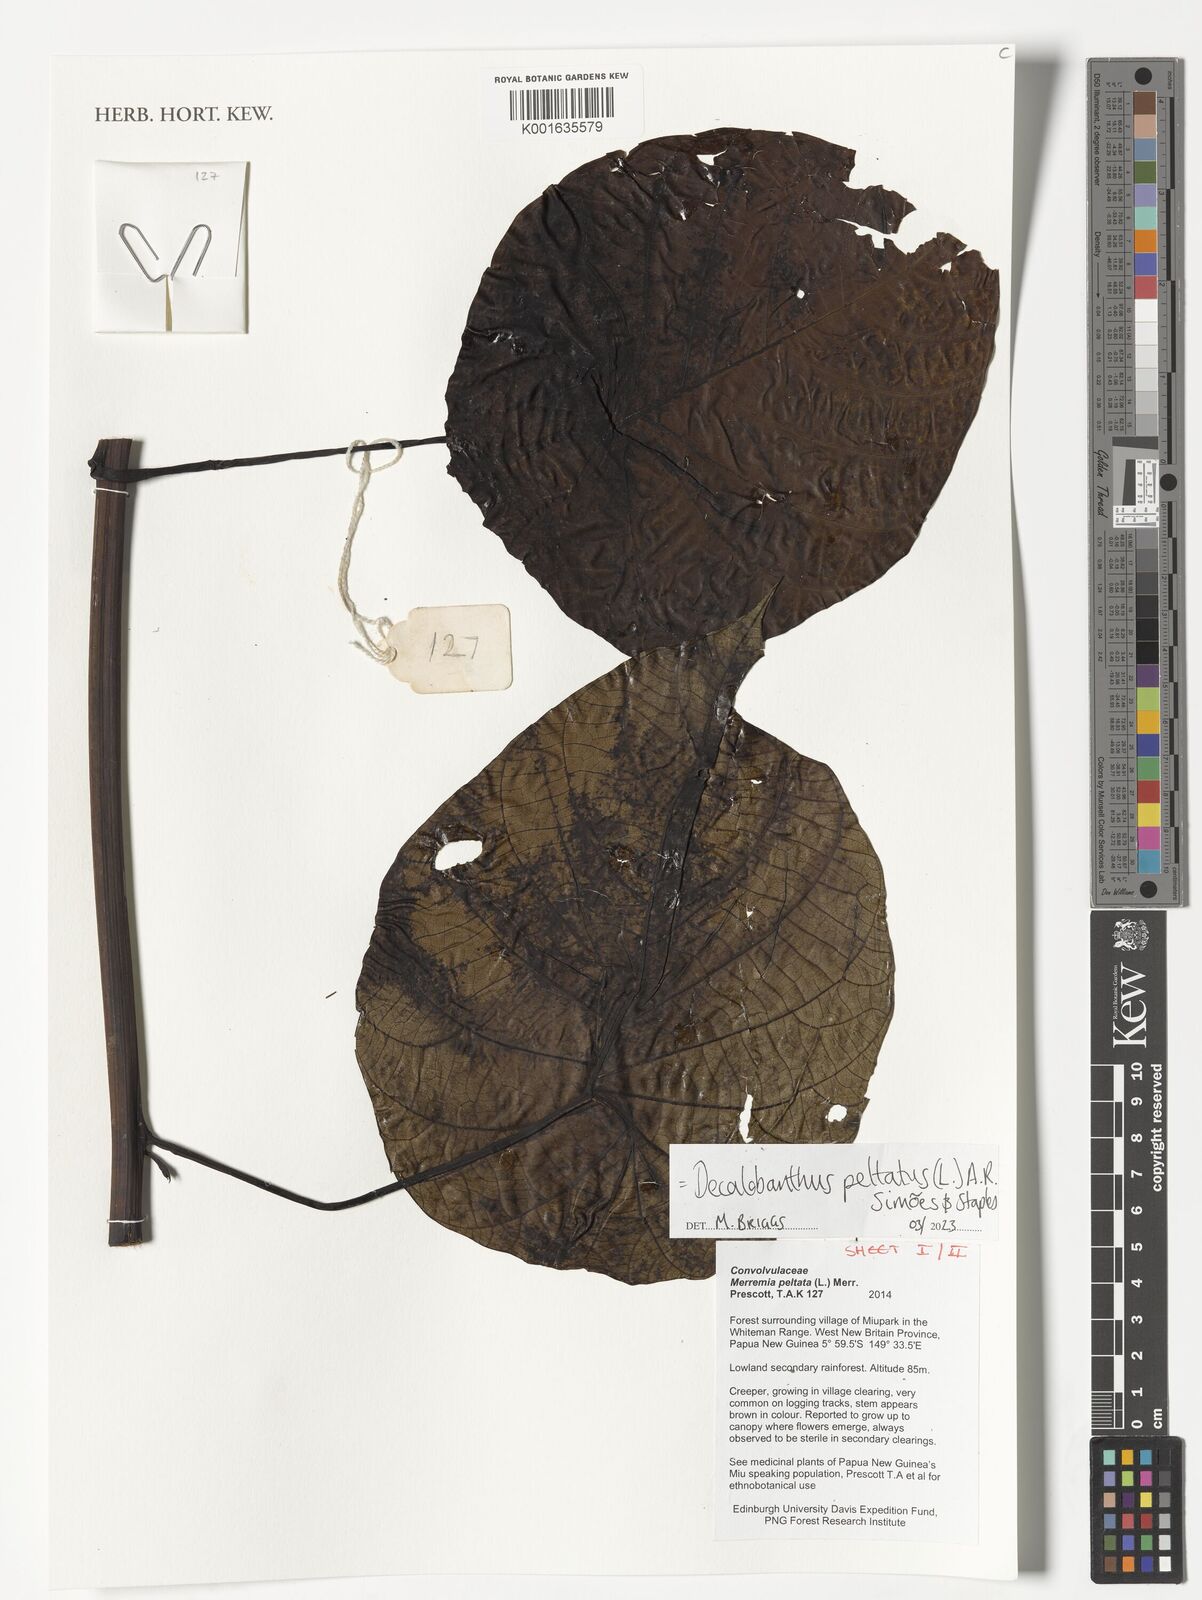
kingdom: Plantae
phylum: Tracheophyta
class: Magnoliopsida
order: Solanales
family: Convolvulaceae
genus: Decalobanthus
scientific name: Decalobanthus peltatus
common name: Merremia
